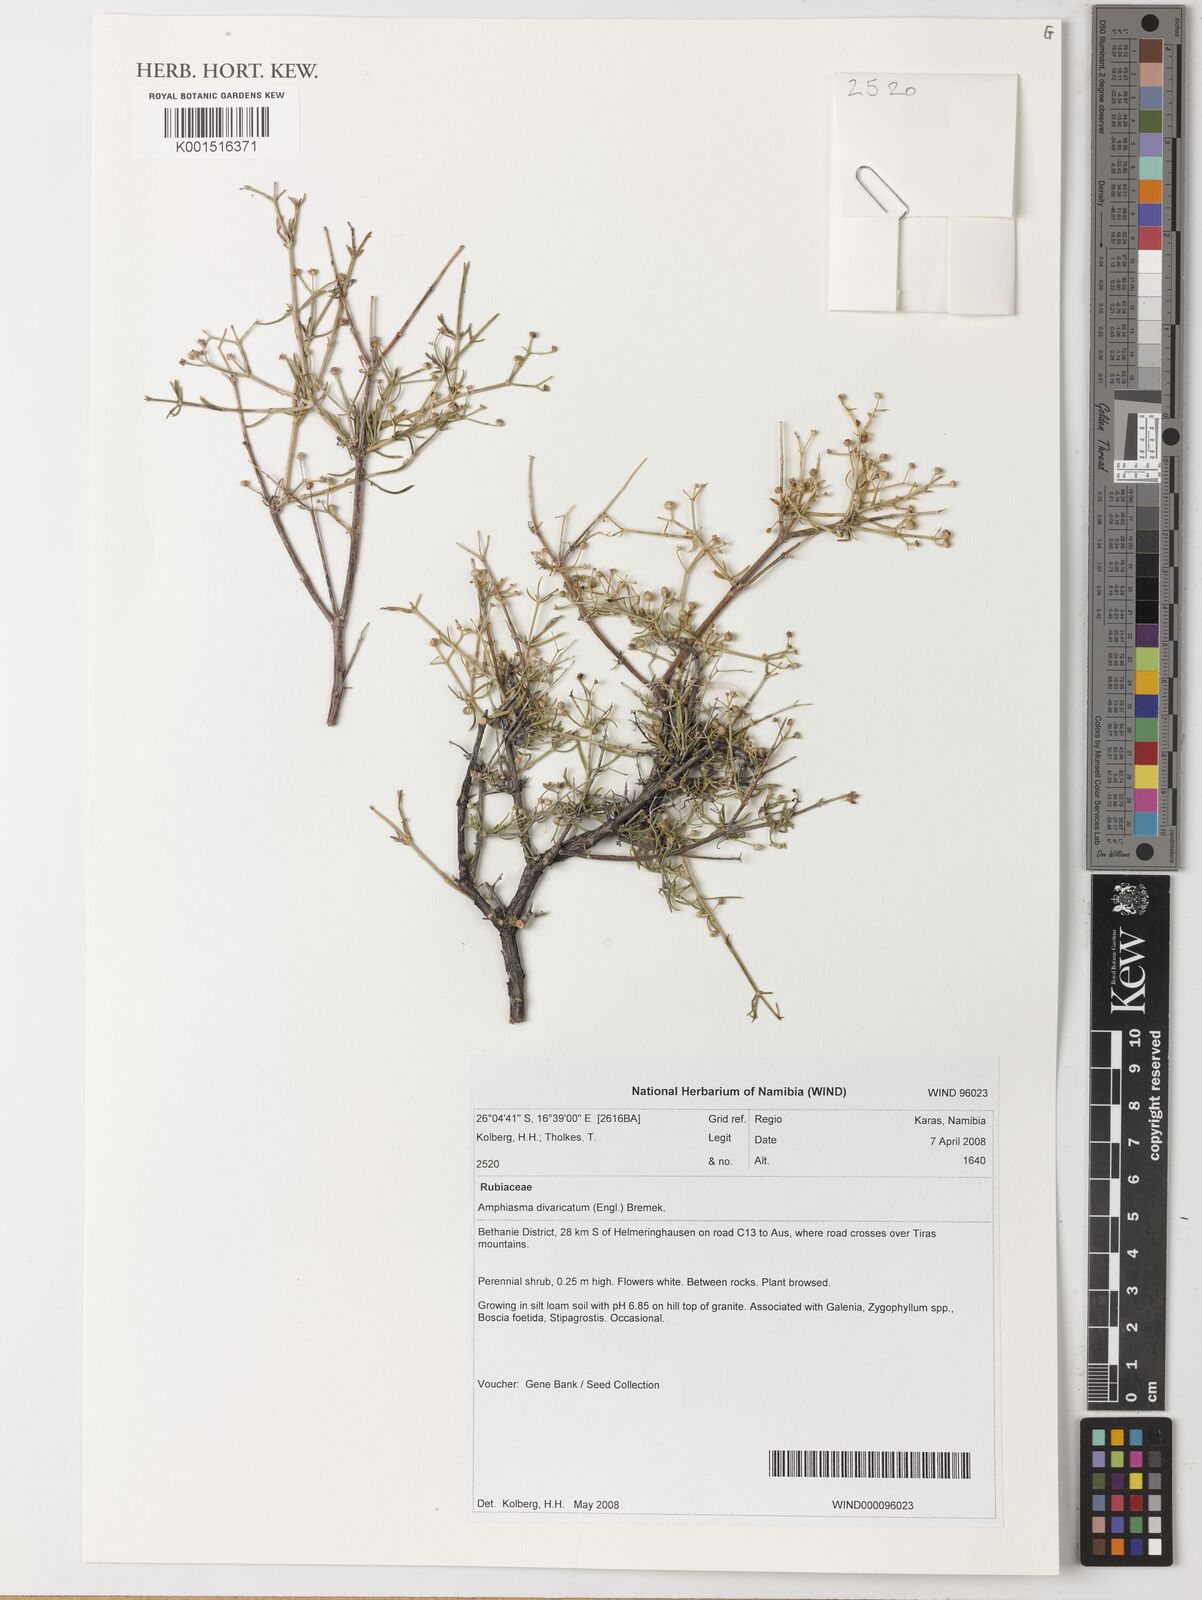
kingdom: Plantae
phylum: Tracheophyta
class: Magnoliopsida
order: Gentianales
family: Rubiaceae
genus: Amphiasma
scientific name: Amphiasma divaricatum
